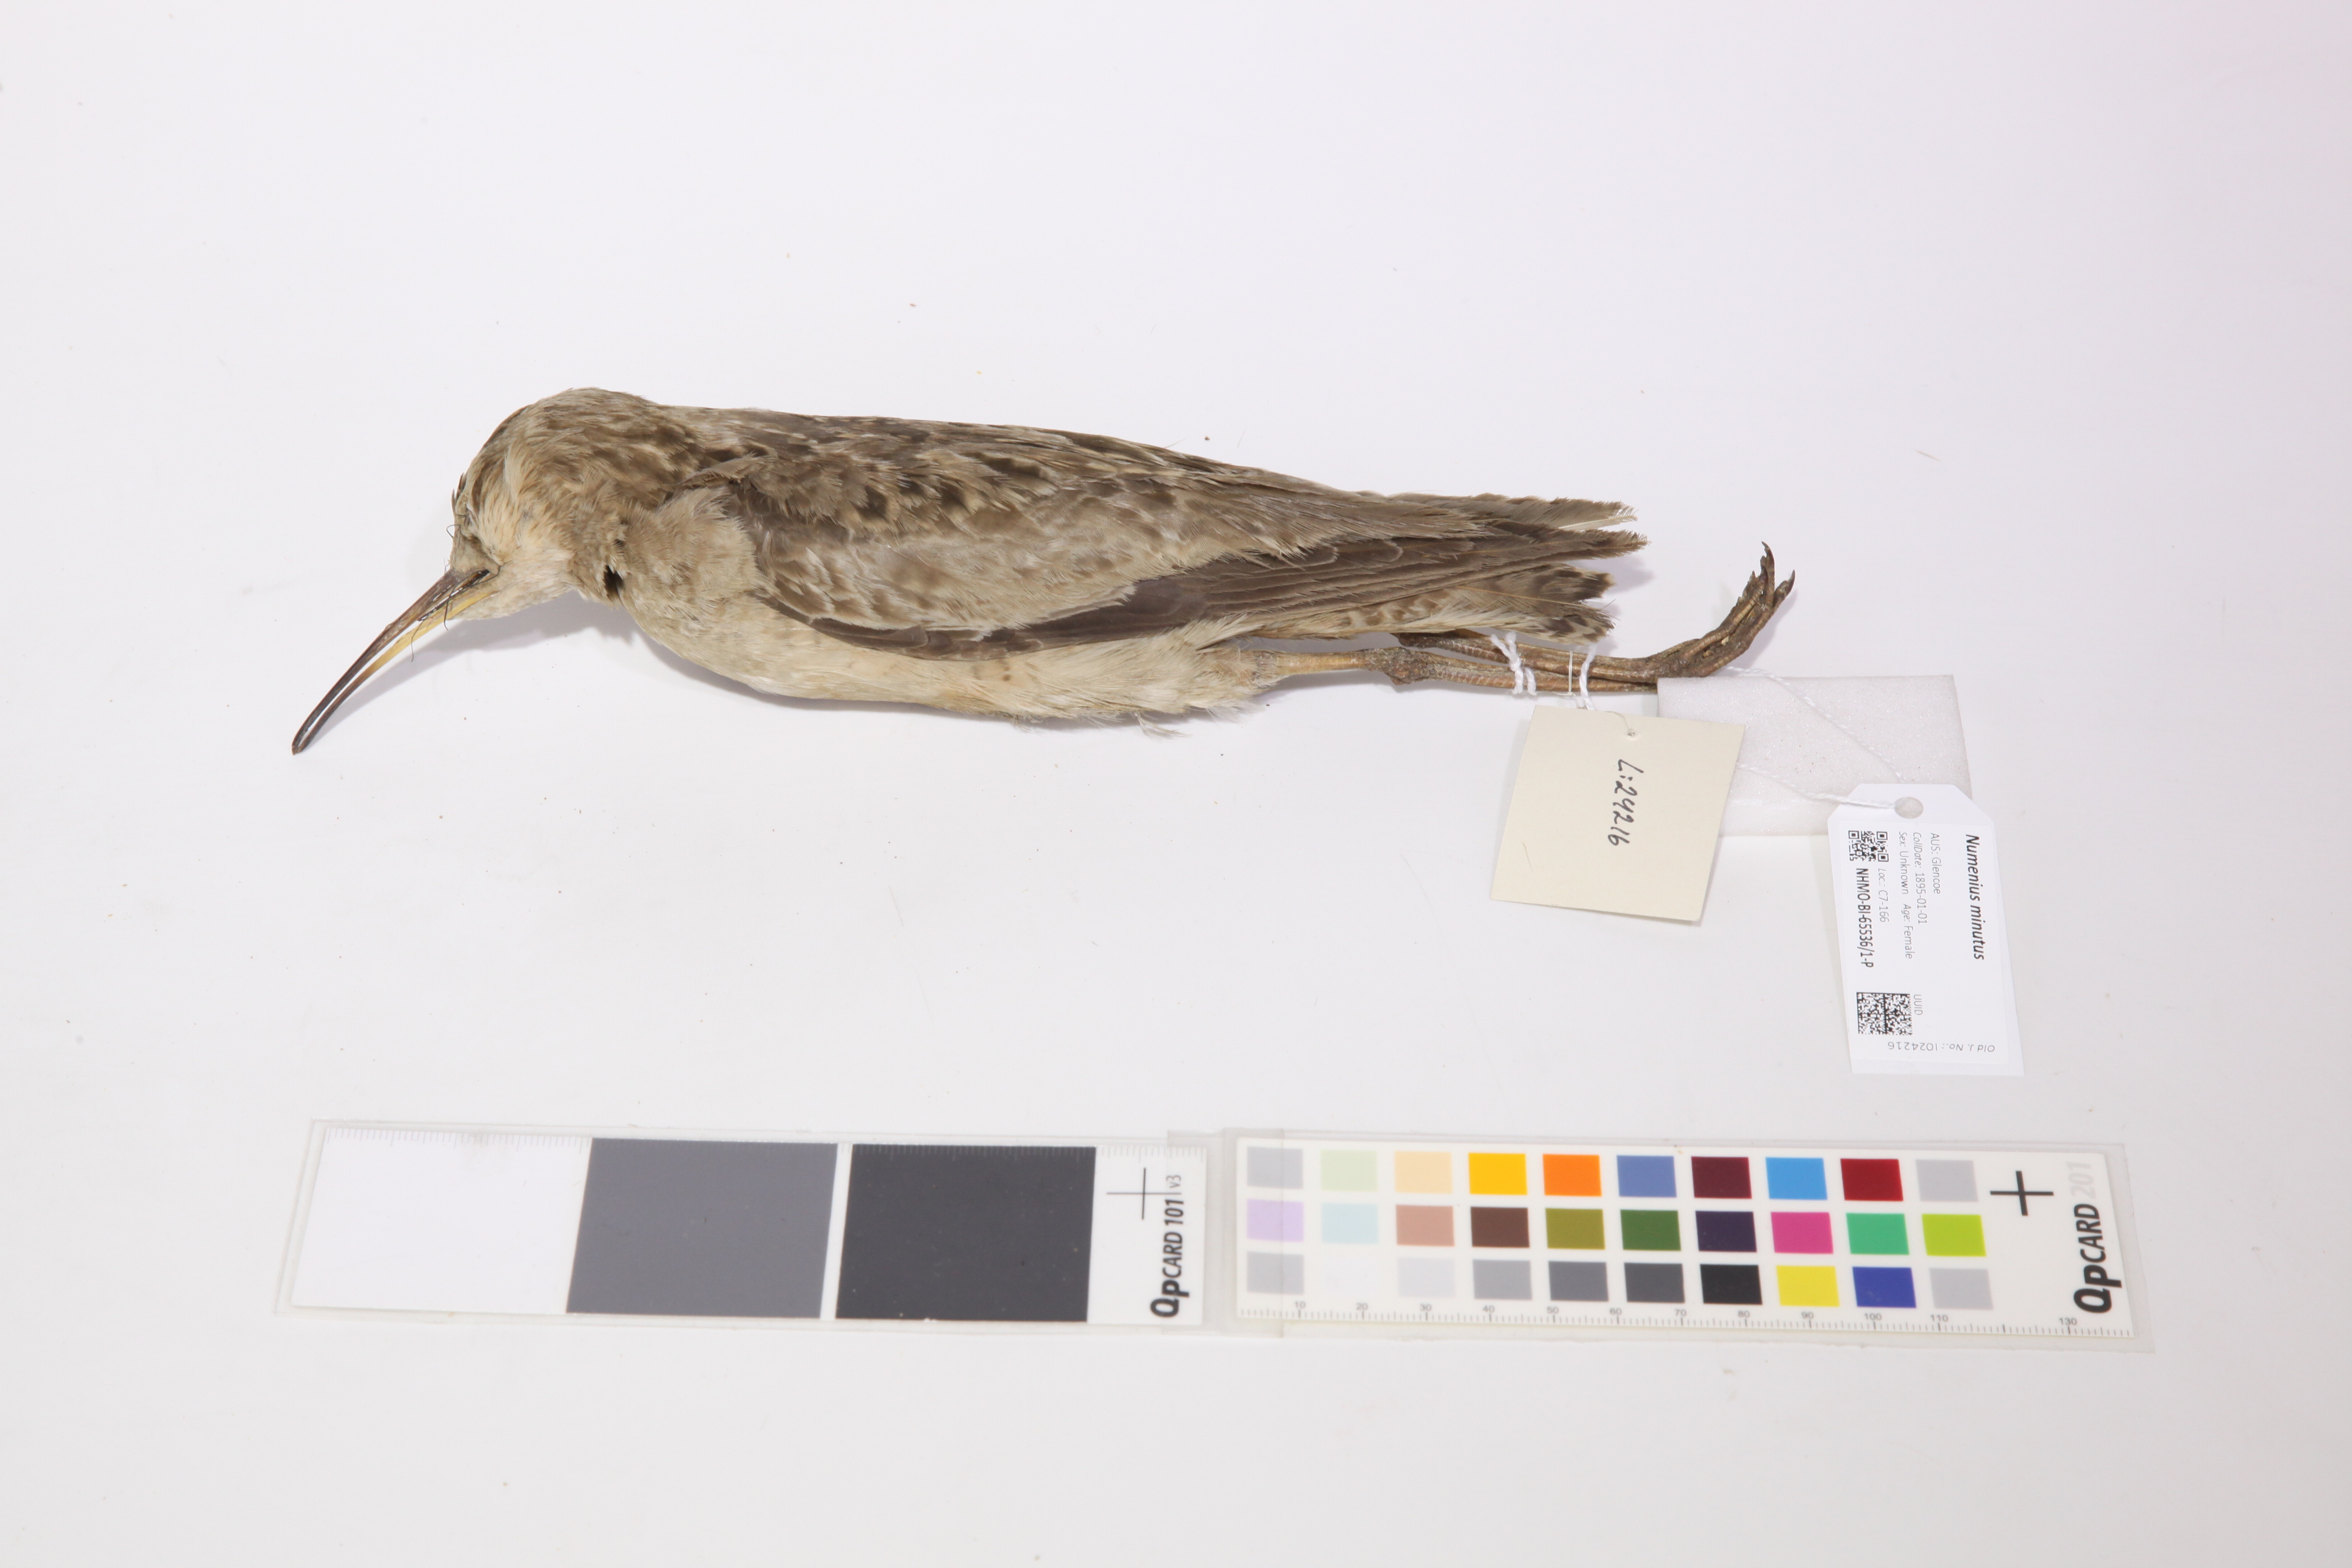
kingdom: Animalia
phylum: Chordata
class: Aves
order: Charadriiformes
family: Scolopacidae
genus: Numenius
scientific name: Numenius minutus
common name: Little curlew
